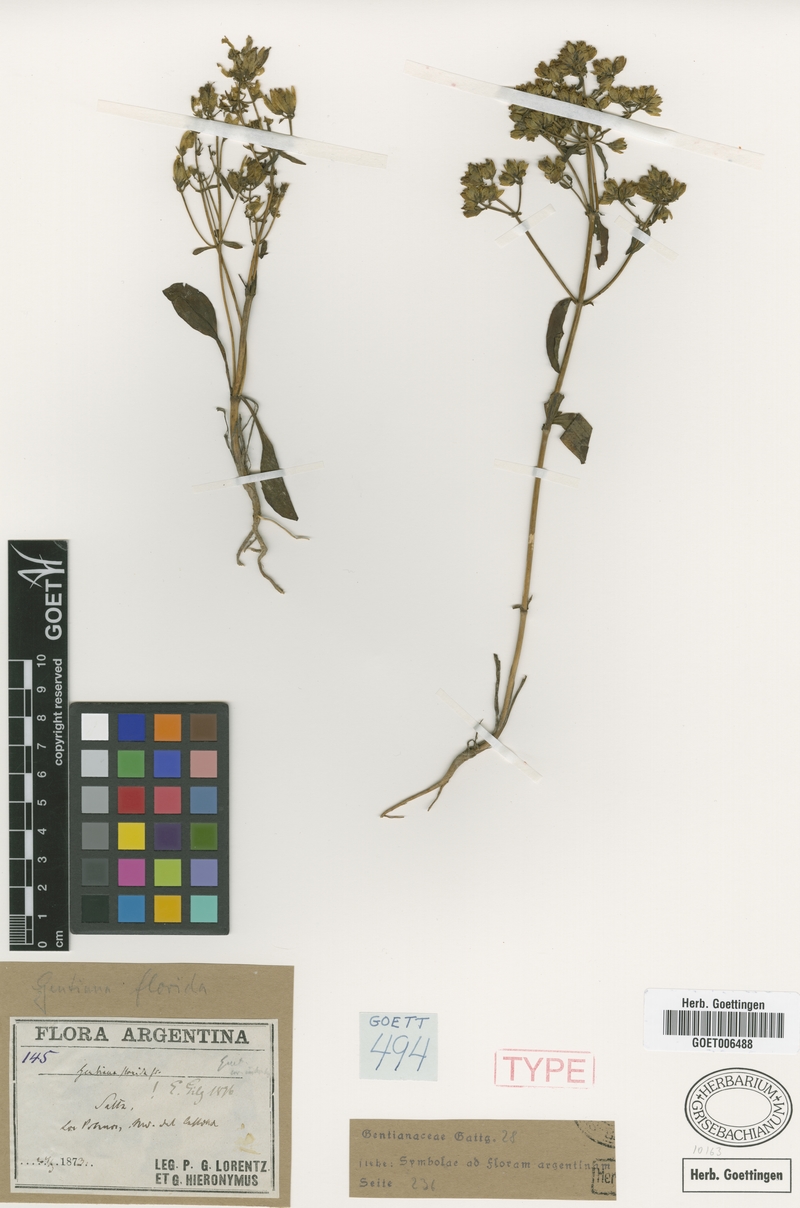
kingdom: Plantae
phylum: Tracheophyta
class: Magnoliopsida
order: Gentianales
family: Gentianaceae
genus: Gentianella
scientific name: Gentianella florida
